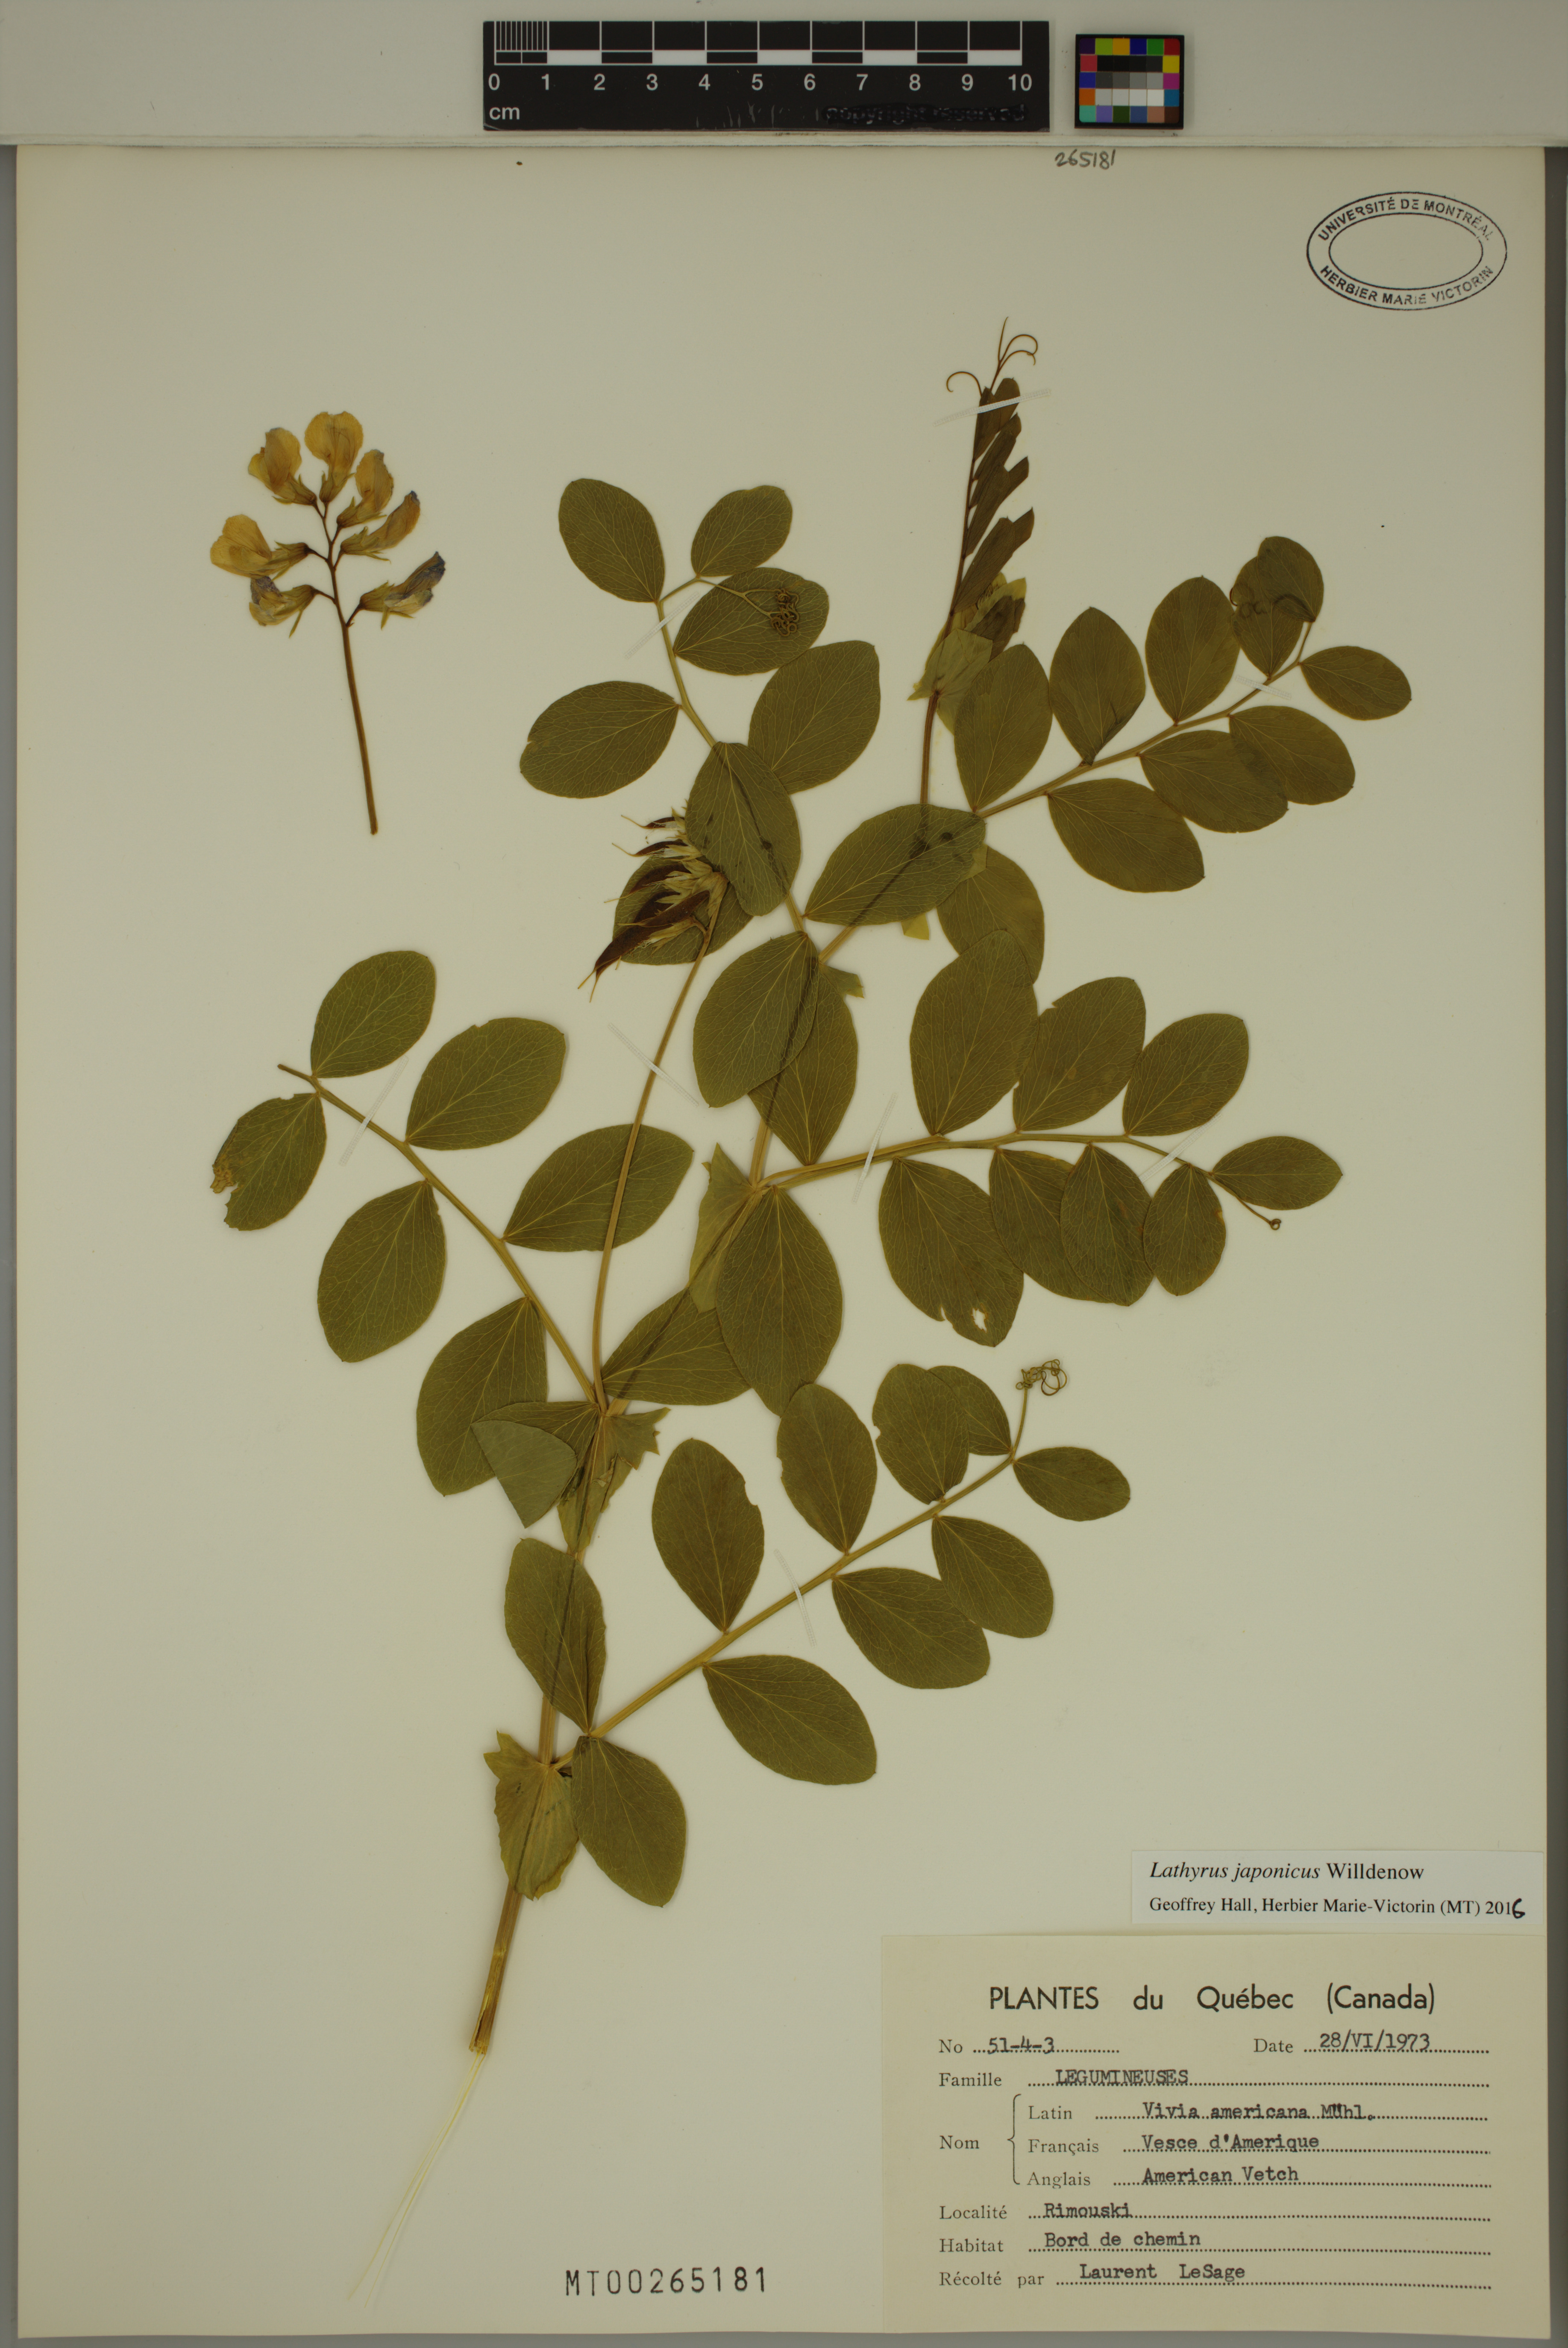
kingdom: Plantae
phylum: Tracheophyta
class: Magnoliopsida
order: Fabales
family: Fabaceae
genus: Lathyrus
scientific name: Lathyrus japonicus
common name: Sea pea
